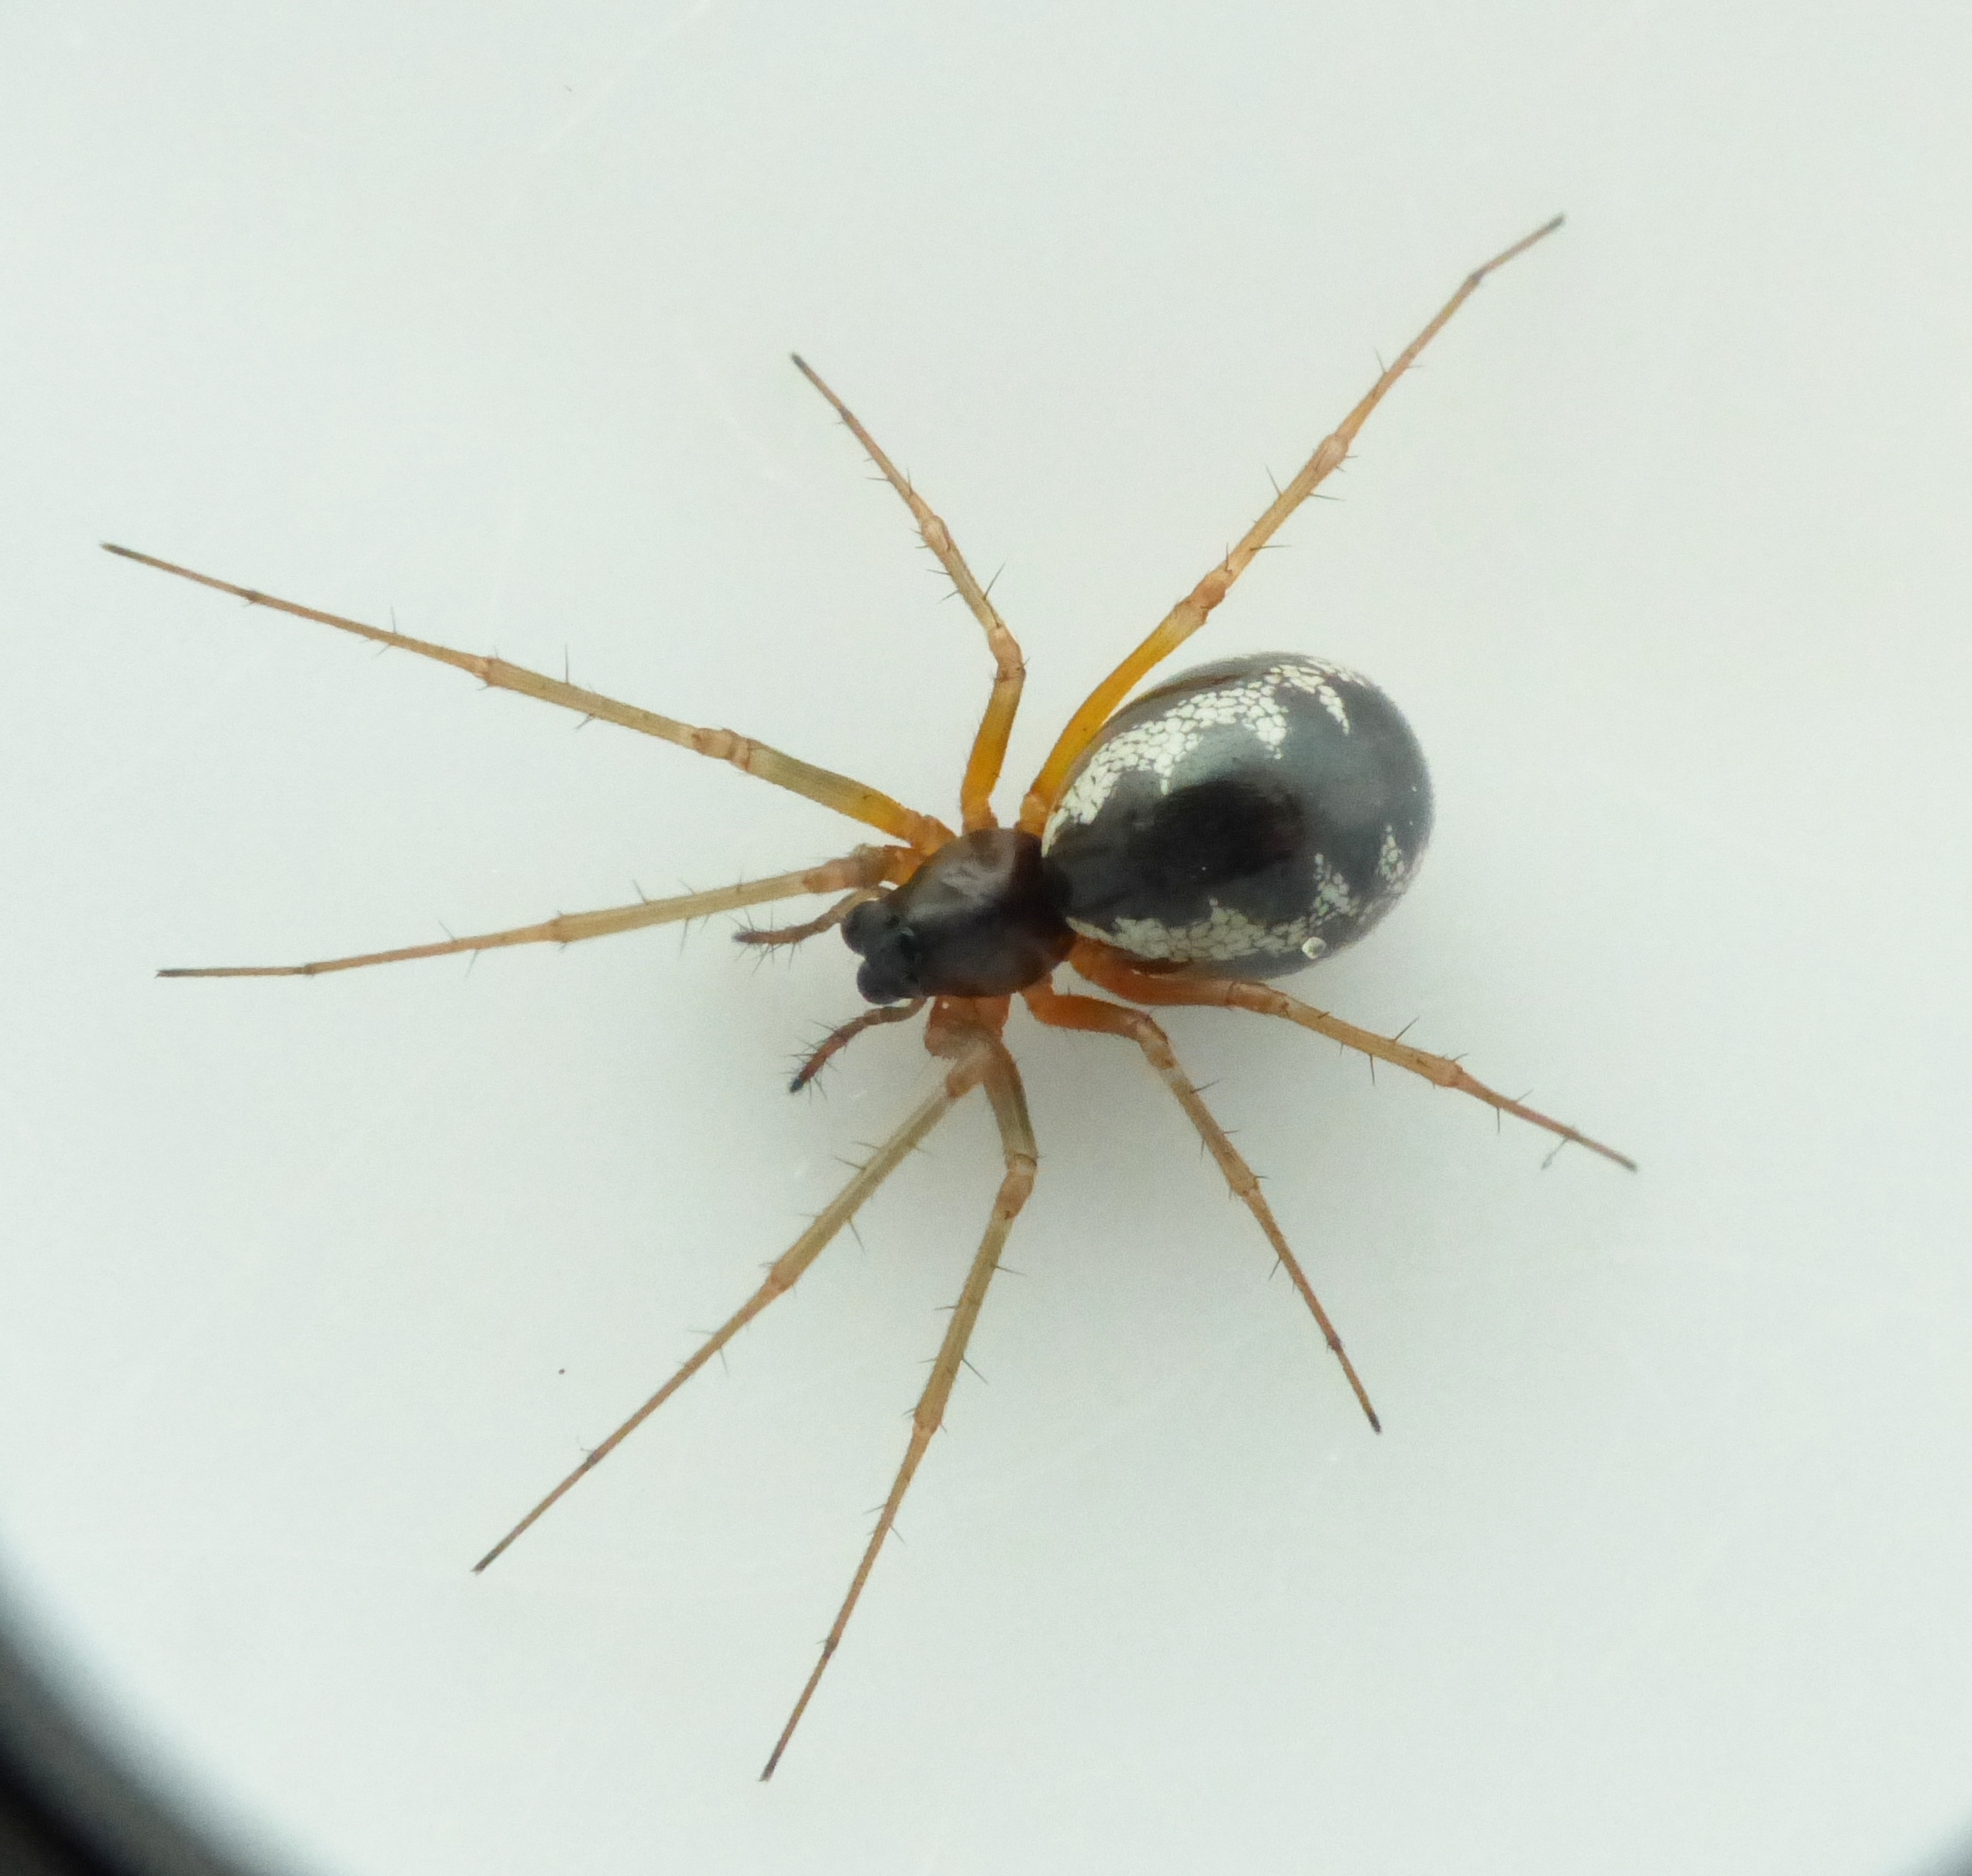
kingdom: Animalia
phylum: Arthropoda
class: Arachnida
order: Araneae
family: Linyphiidae
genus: Linyphia
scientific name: Linyphia hortensis
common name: Skovbaldakinspinder
